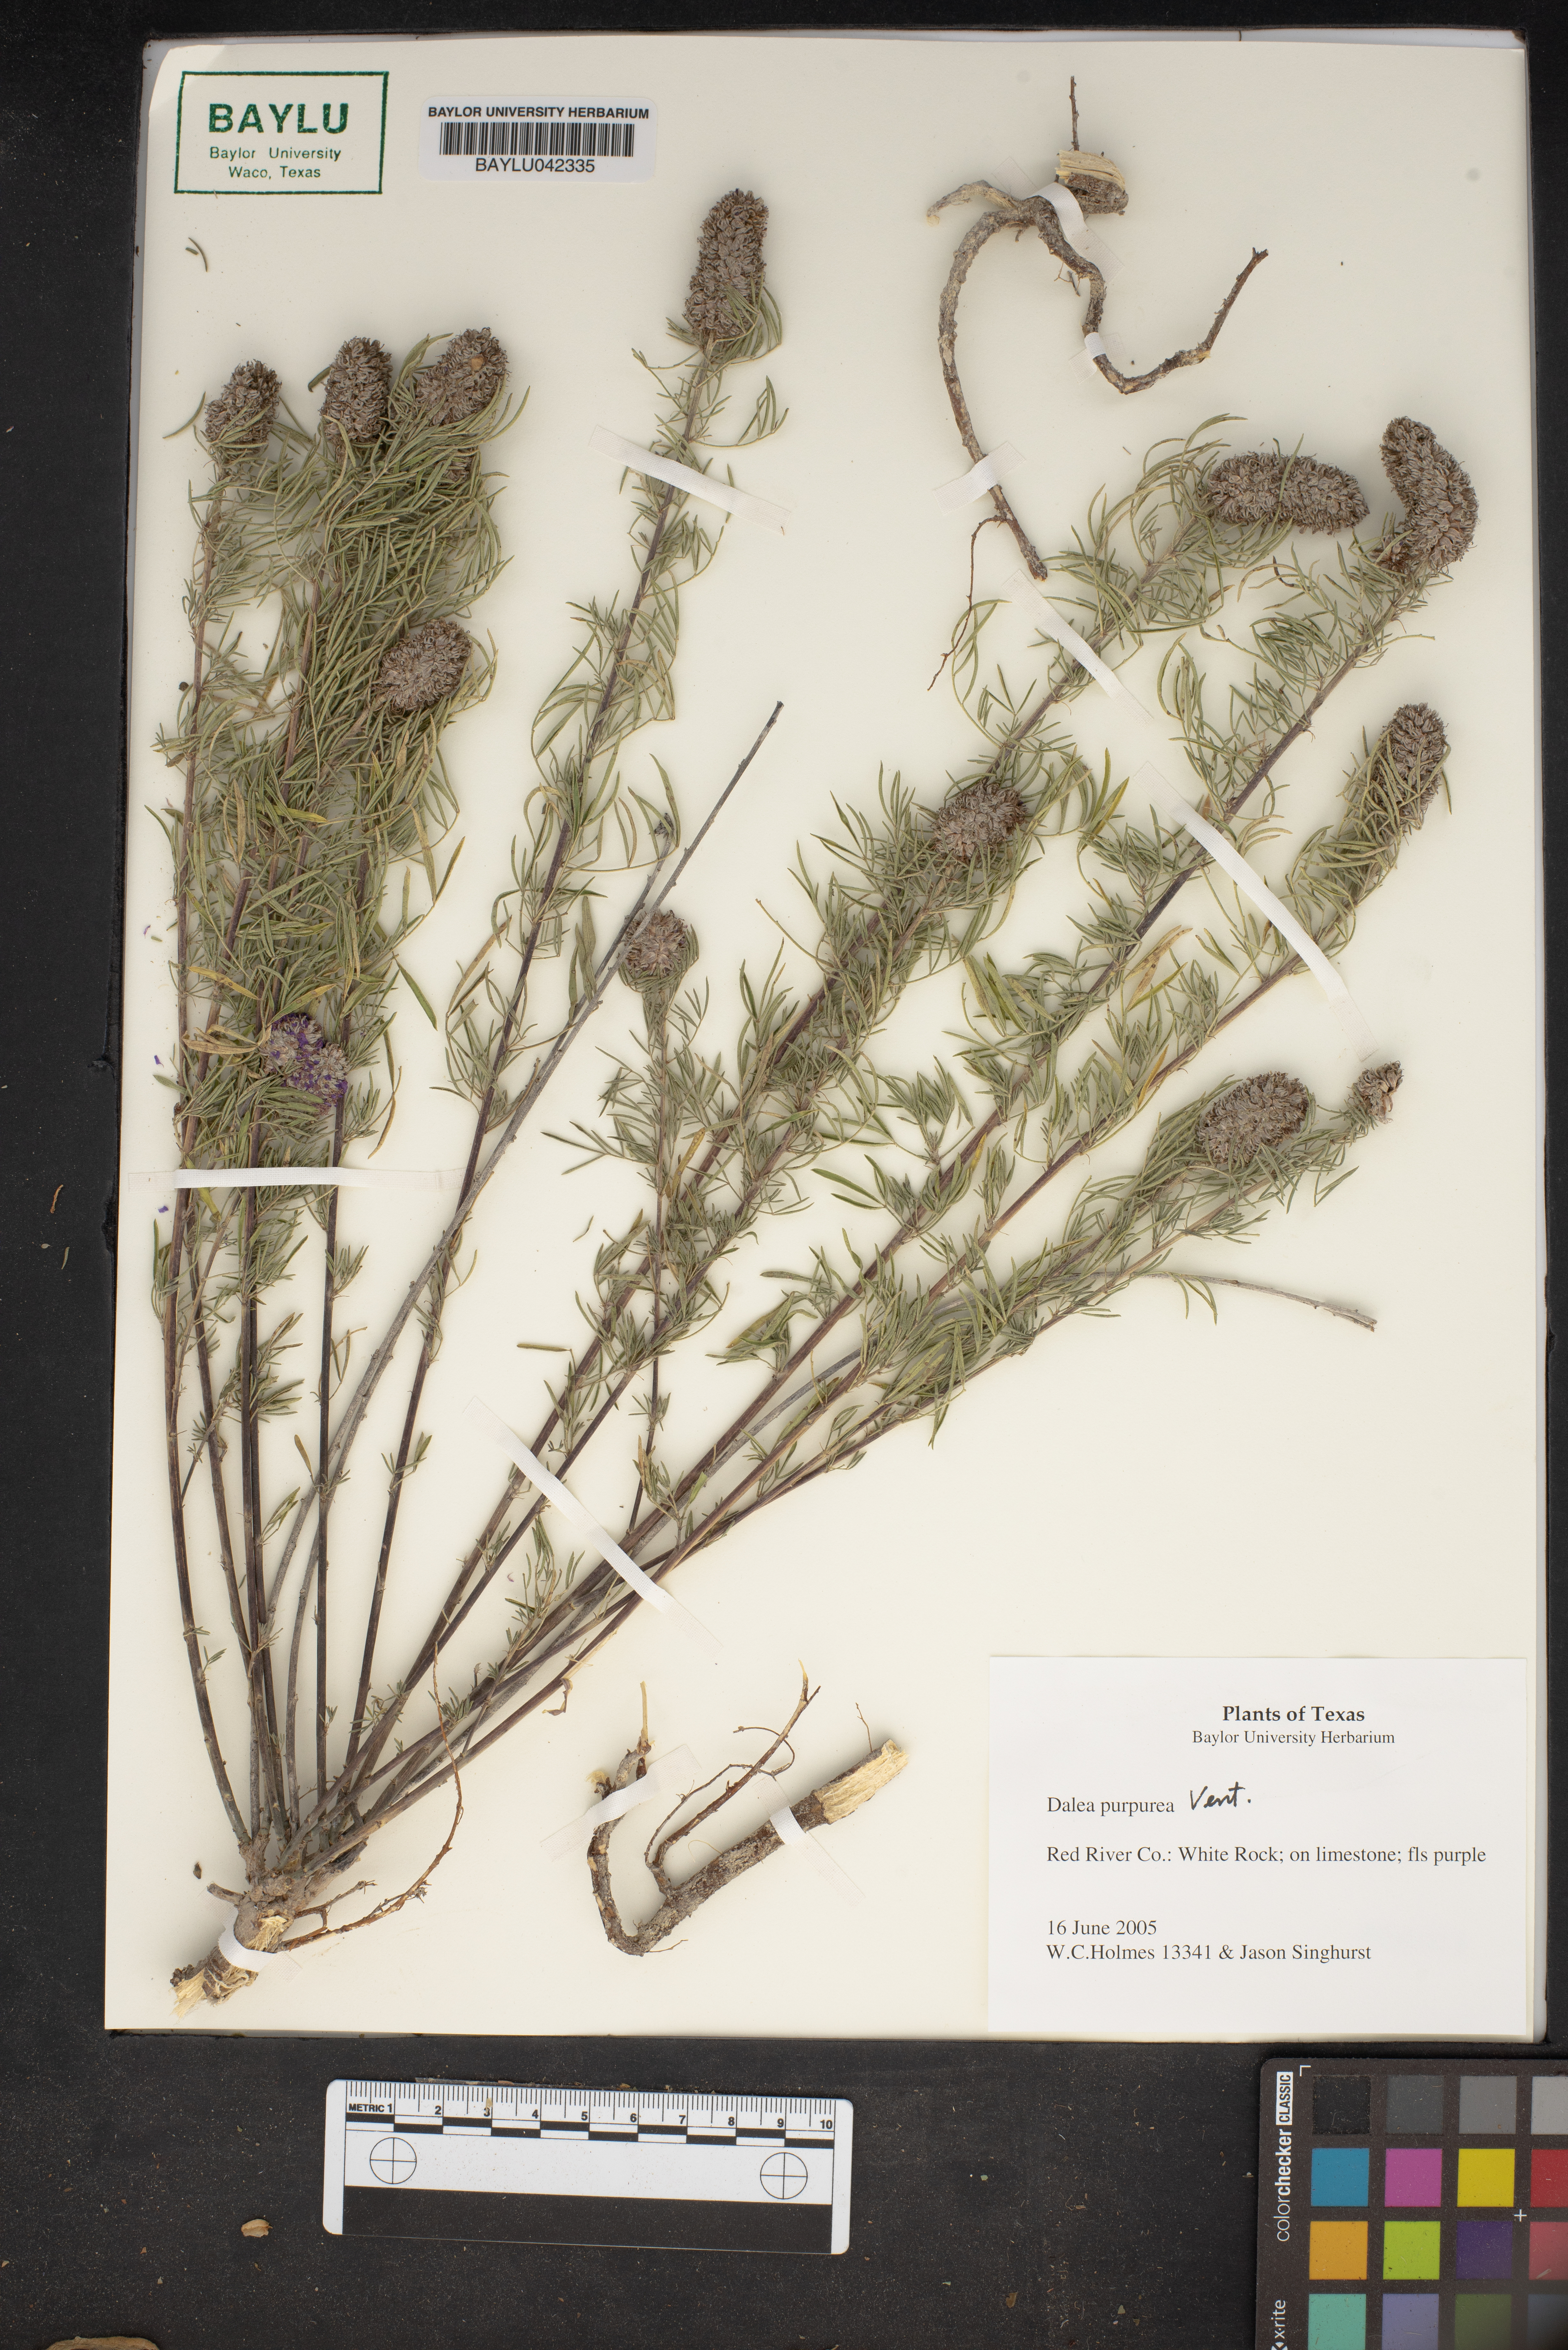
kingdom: Plantae
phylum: Tracheophyta
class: Magnoliopsida
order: Fabales
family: Fabaceae
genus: Dalea
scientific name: Dalea purpurea
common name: Purple prairie-clover
